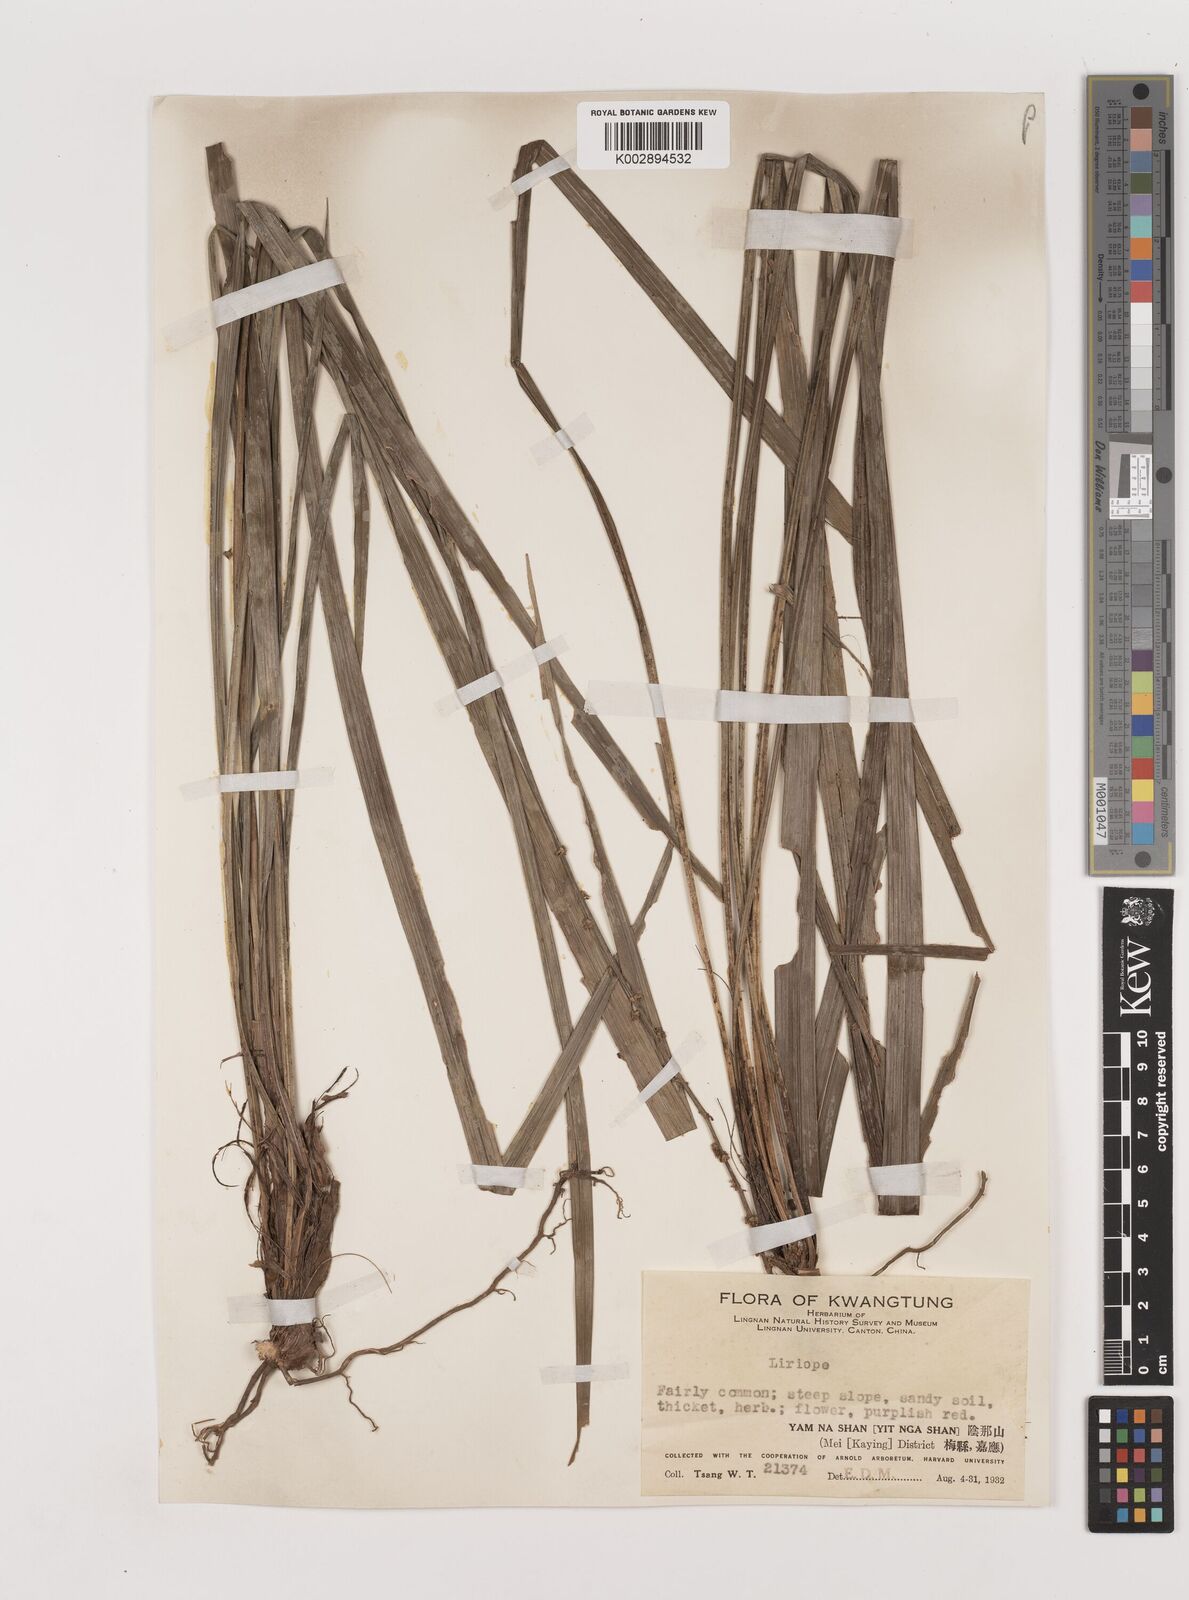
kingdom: Plantae
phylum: Tracheophyta
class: Liliopsida
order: Asparagales
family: Asparagaceae
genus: Liriope
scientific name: Liriope spicata
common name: Creeping liriope
